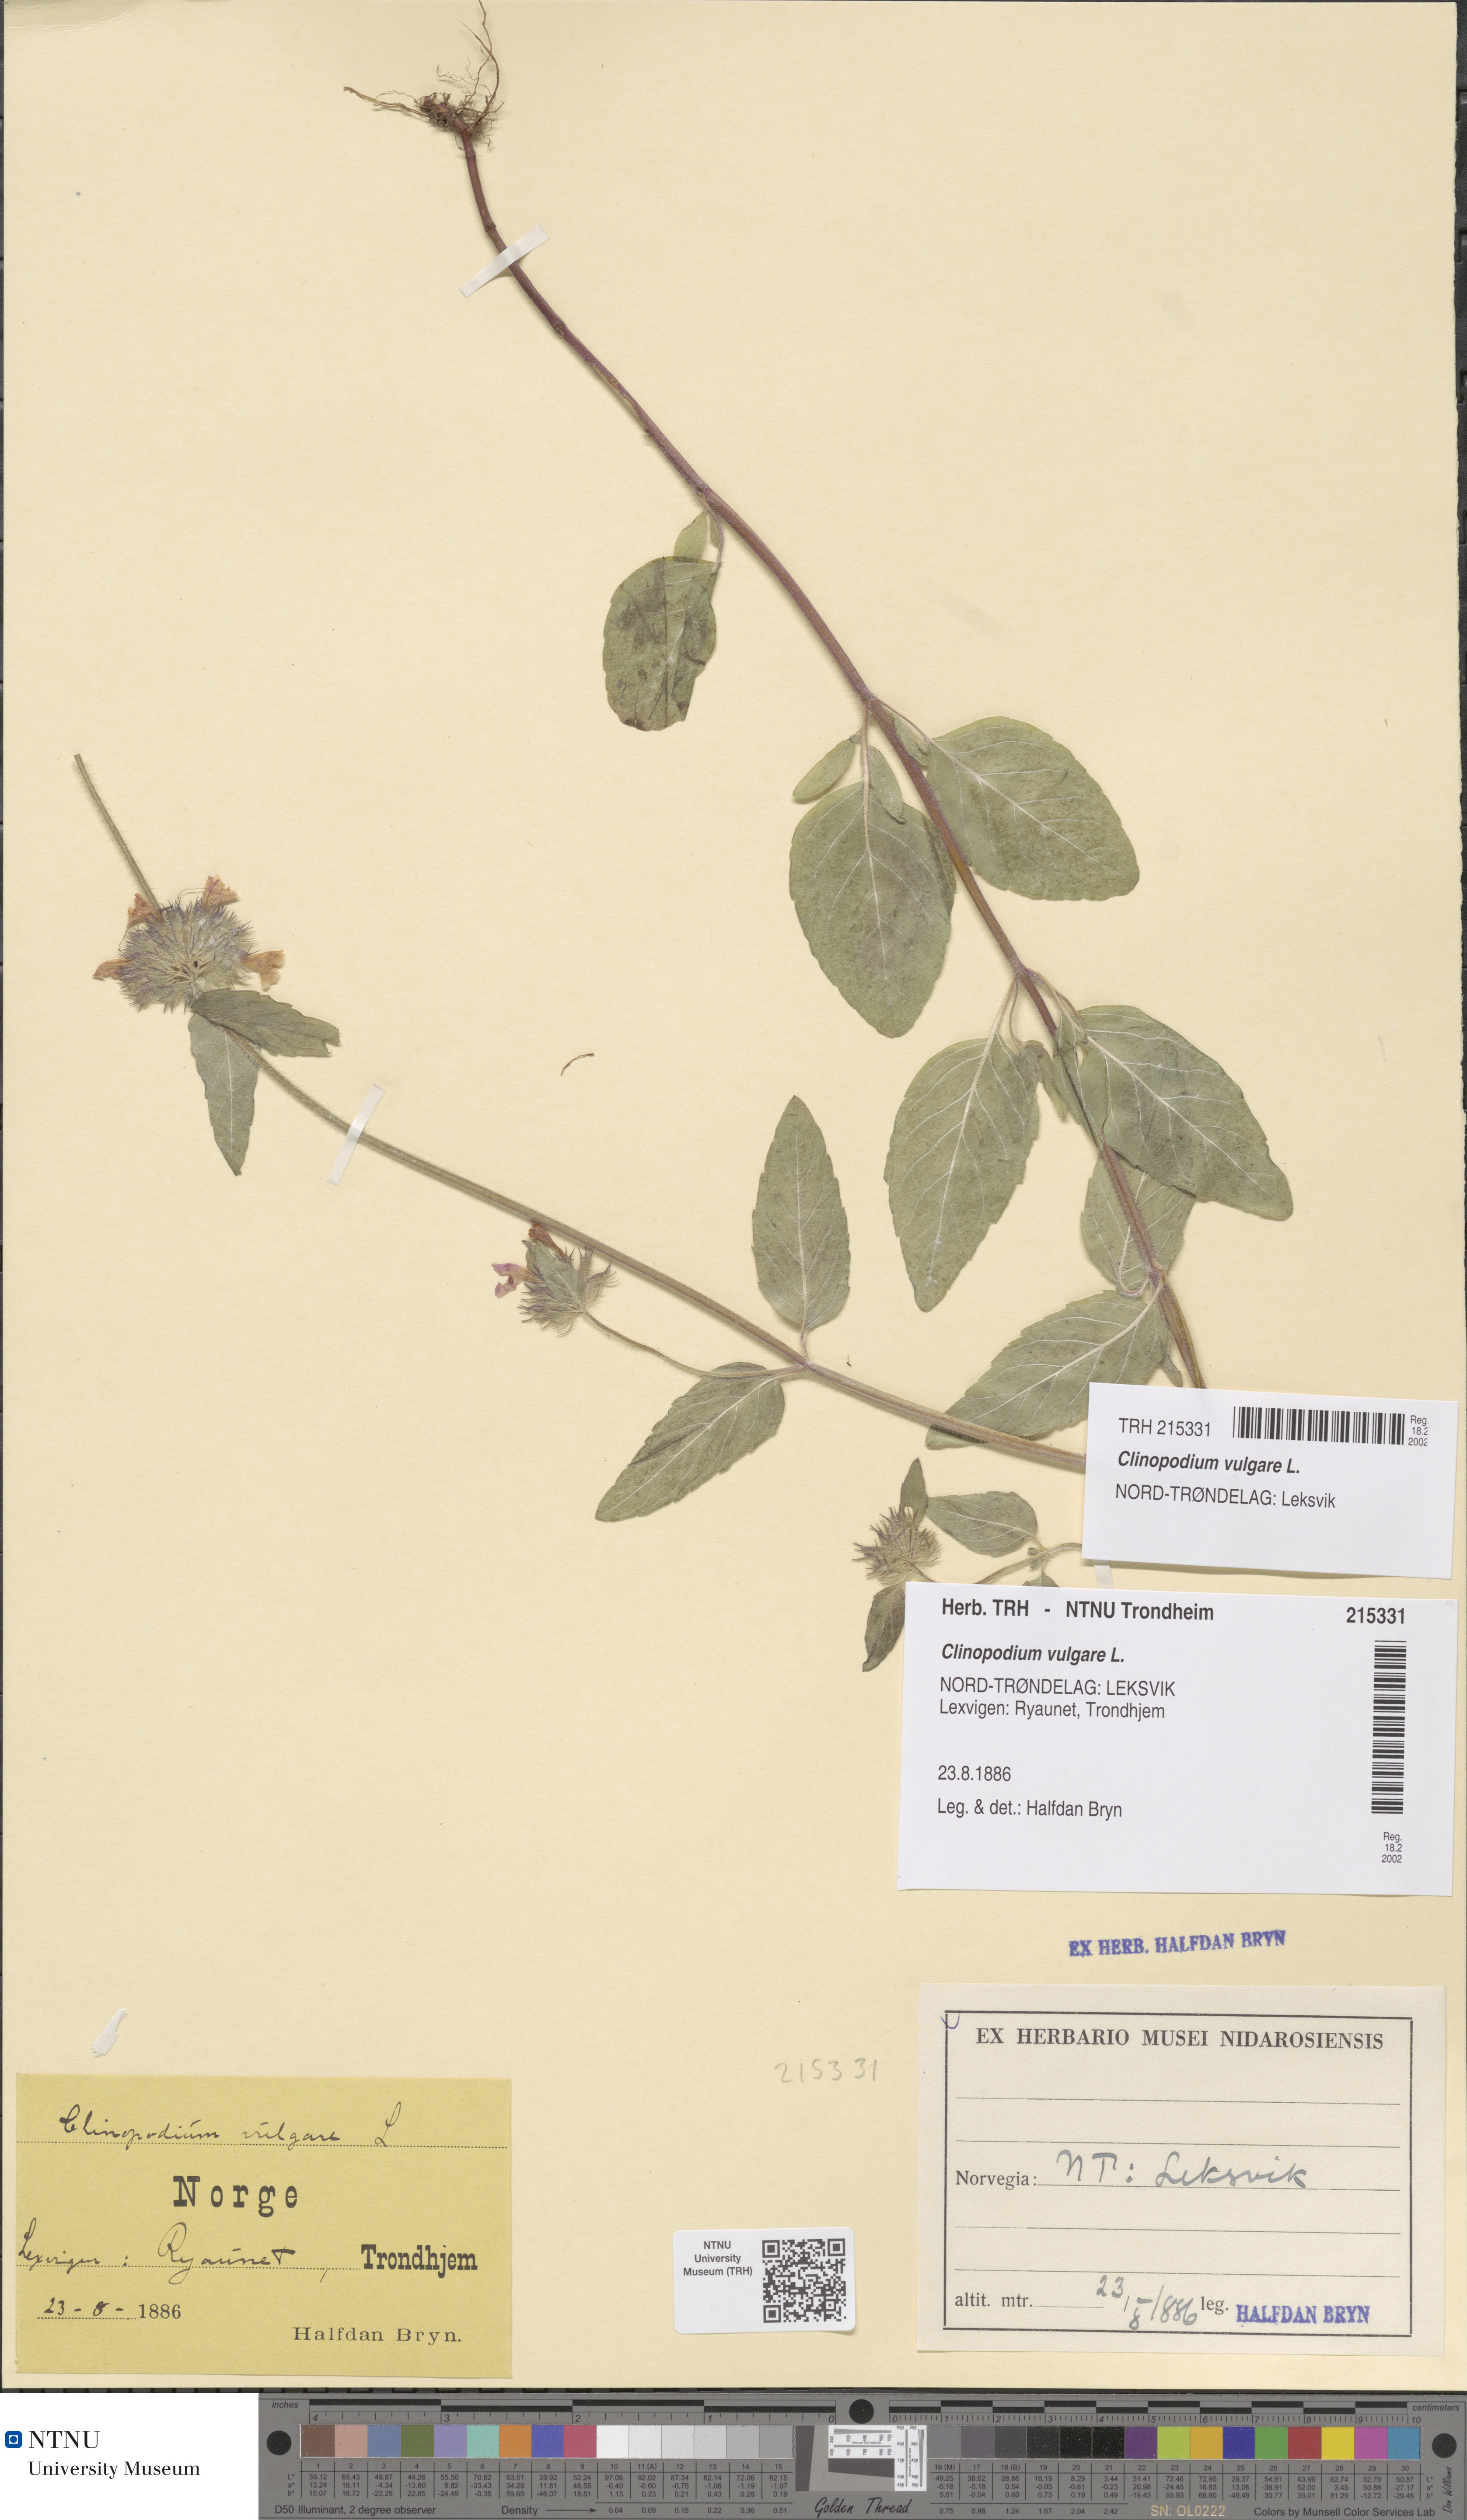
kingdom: Plantae
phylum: Tracheophyta
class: Magnoliopsida
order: Lamiales
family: Lamiaceae
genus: Clinopodium
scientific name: Clinopodium vulgare
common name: Wild basil
